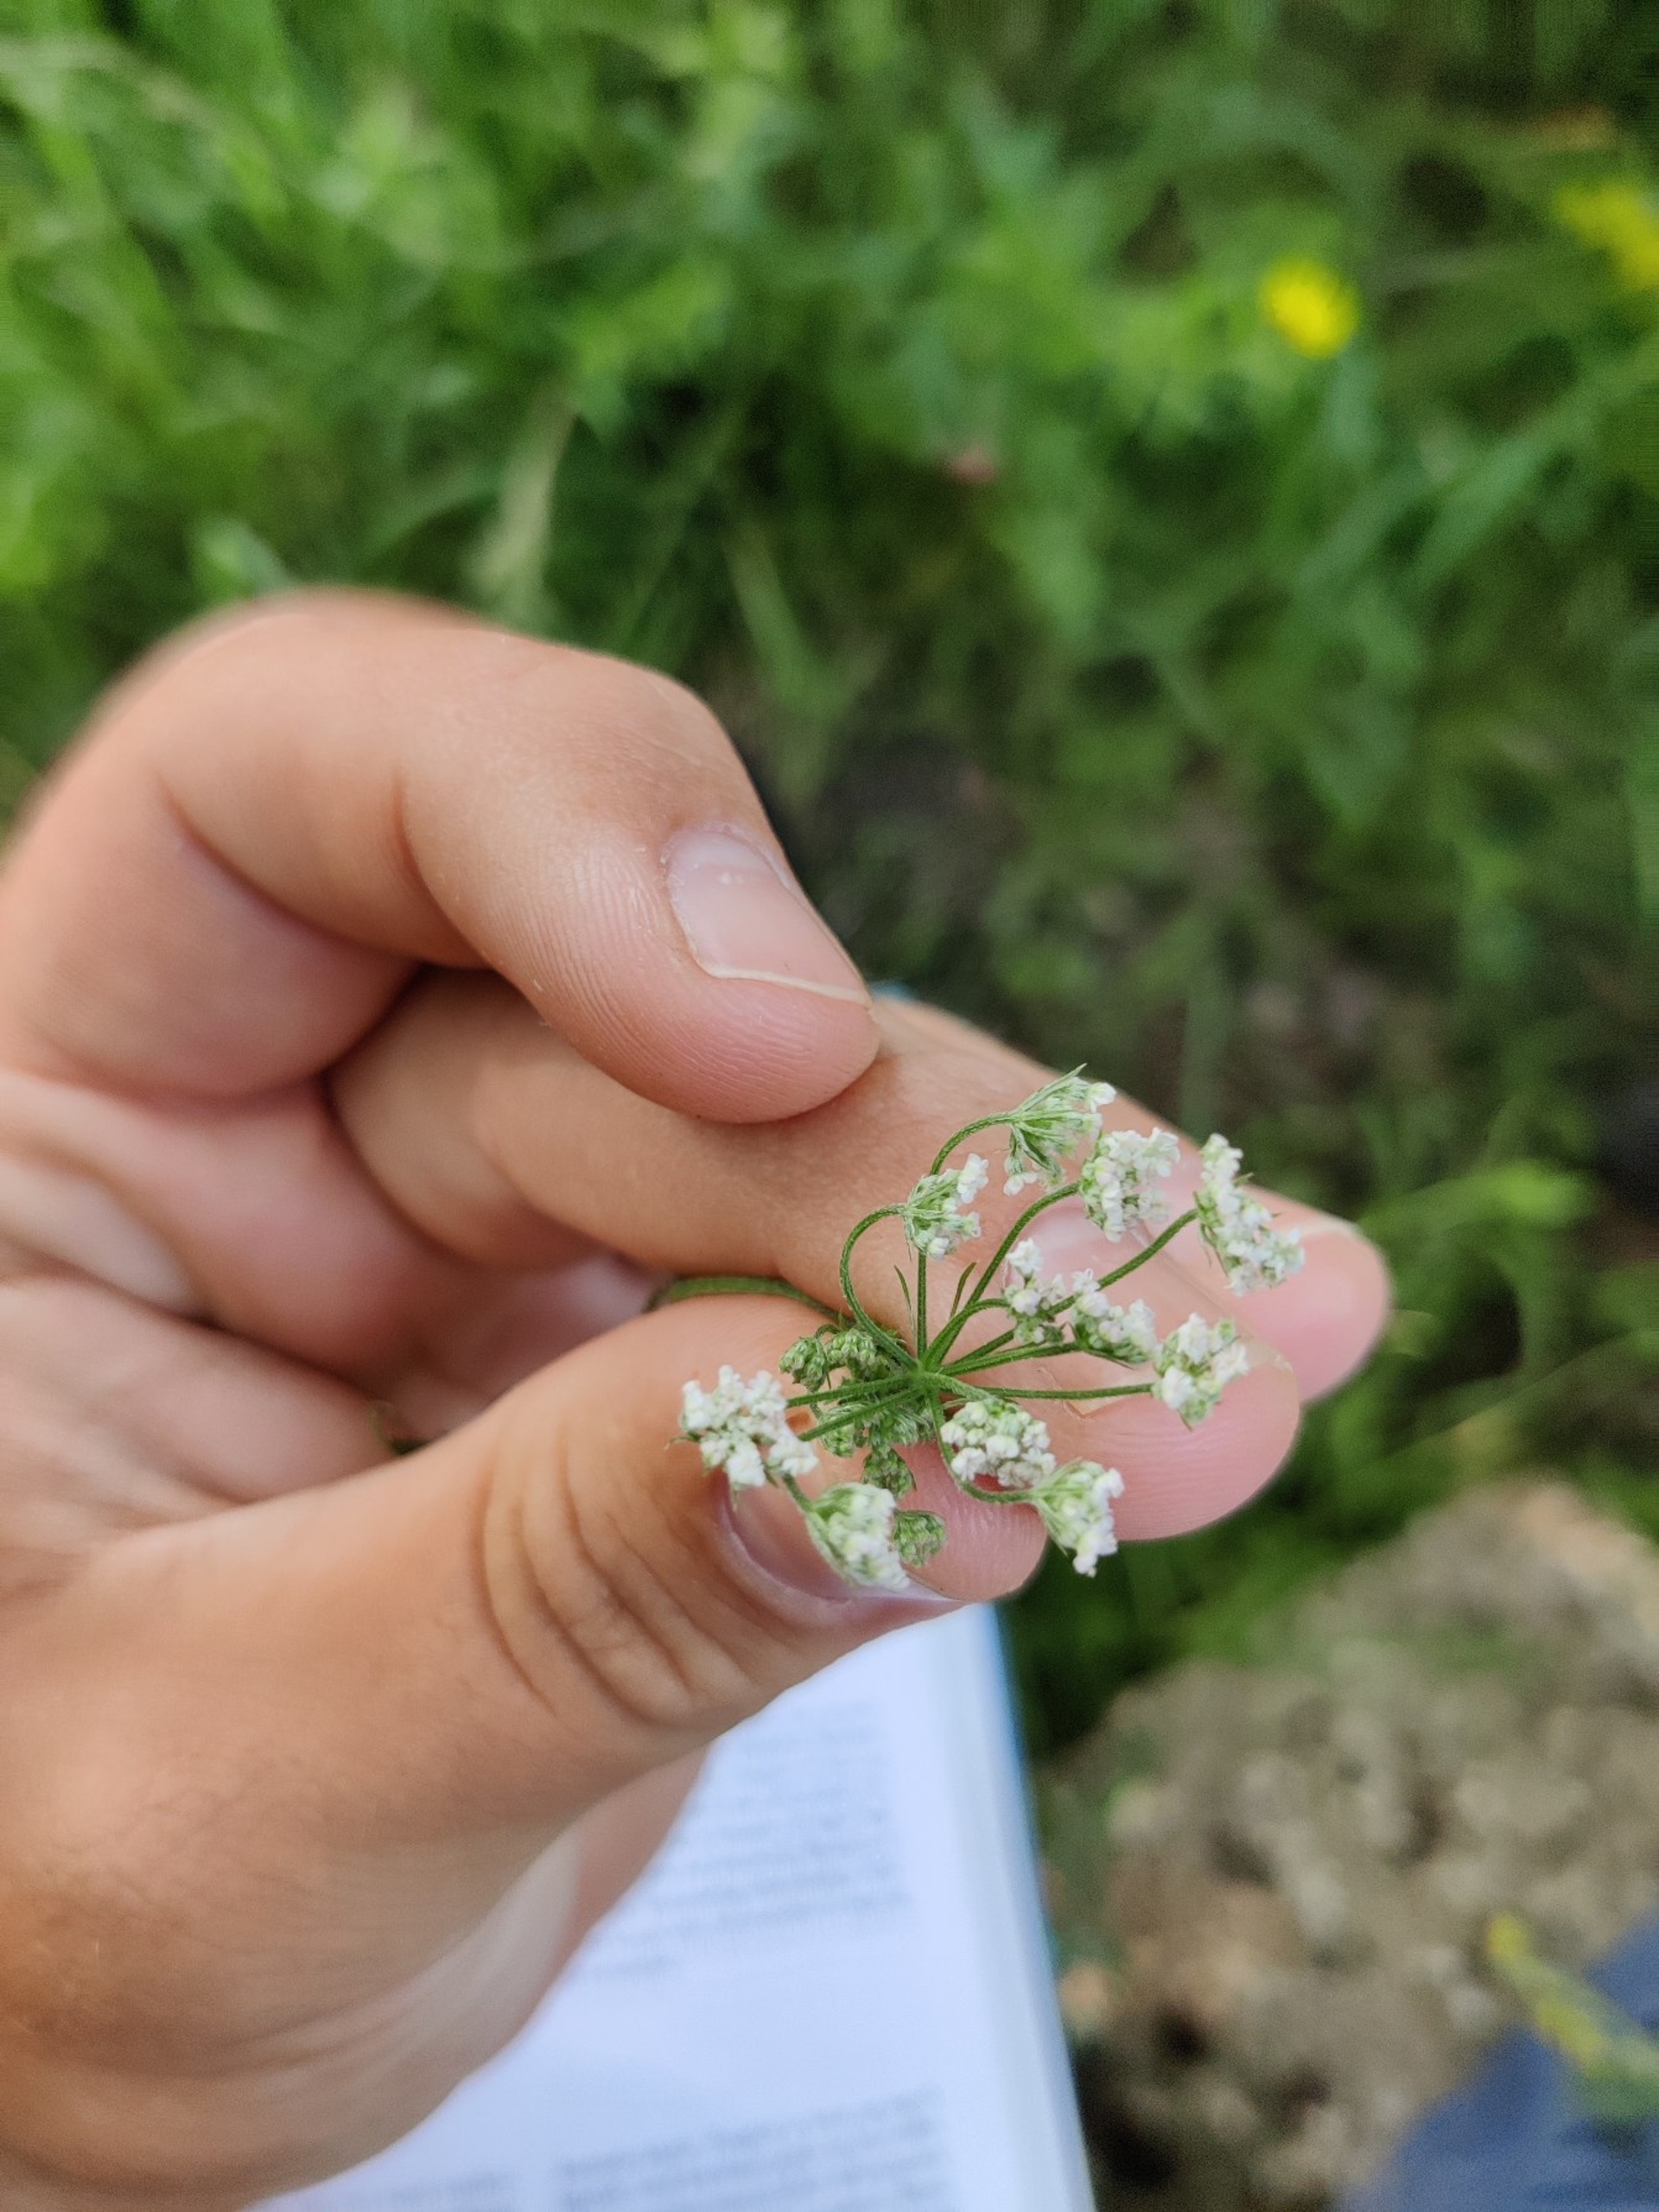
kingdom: Plantae
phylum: Tracheophyta
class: Magnoliopsida
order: Apiales
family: Apiaceae
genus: Torilis
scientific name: Torilis japonica
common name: Hvas randfrø
